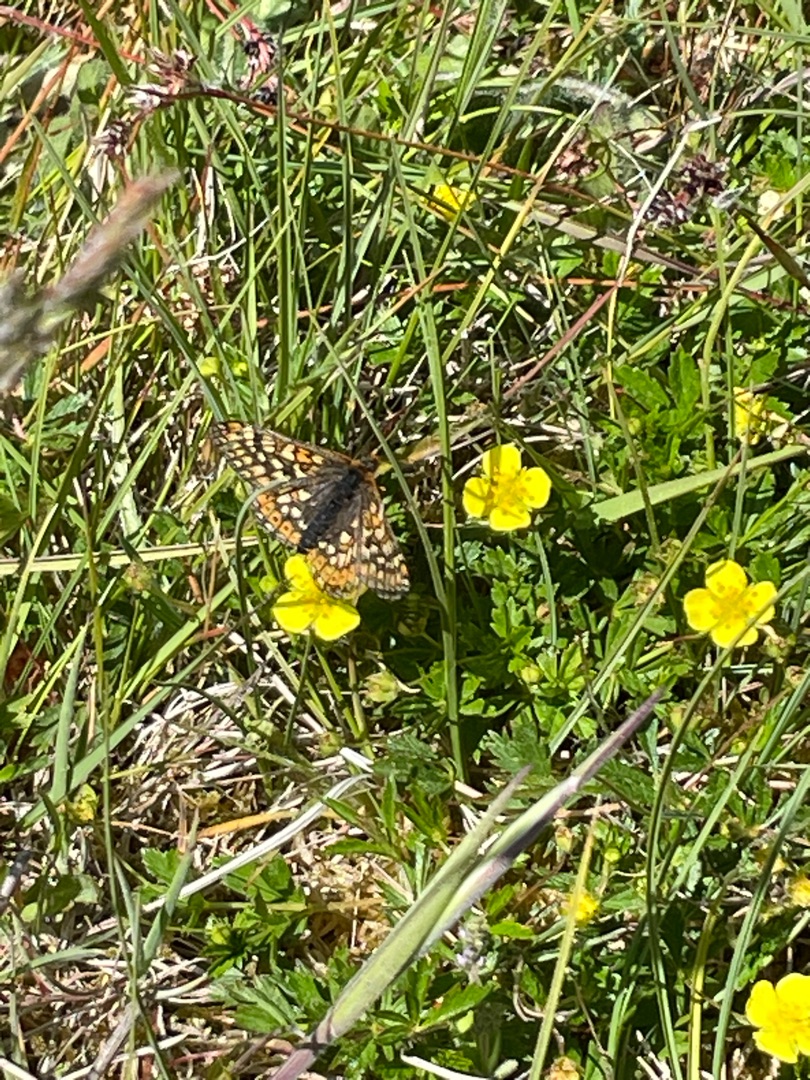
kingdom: Animalia
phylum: Arthropoda
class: Insecta
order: Lepidoptera
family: Nymphalidae
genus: Euphydryas
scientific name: Euphydryas aurinia
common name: Hedepletvinge
